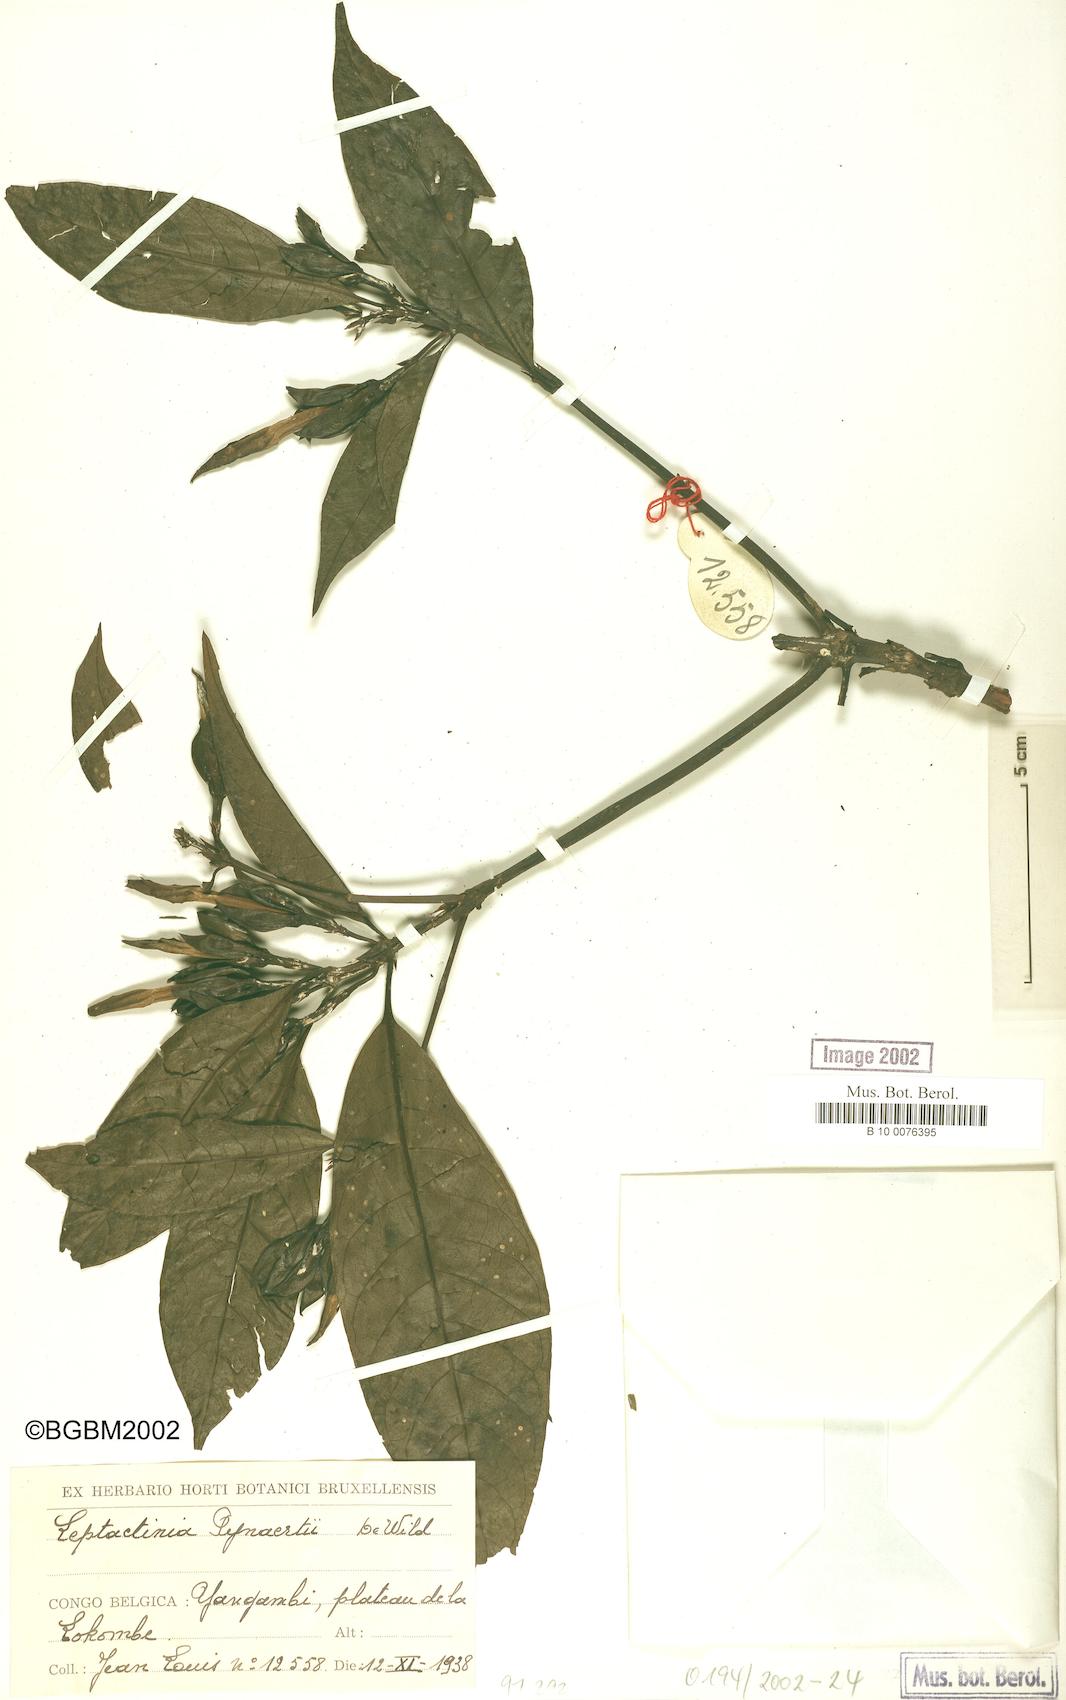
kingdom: Plantae
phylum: Tracheophyta
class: Magnoliopsida
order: Gentianales
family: Rubiaceae
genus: Leptactina
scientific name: Leptactina pynaertii
